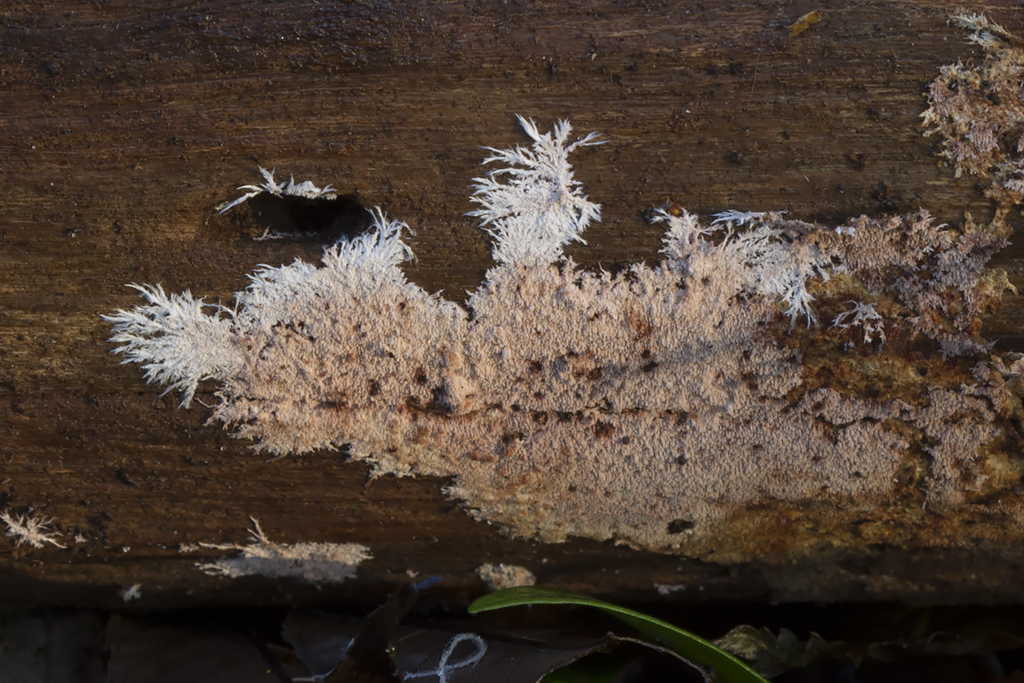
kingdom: Fungi
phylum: Basidiomycota
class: Agaricomycetes
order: Polyporales
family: Steccherinaceae
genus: Steccherinum
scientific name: Steccherinum fimbriatum
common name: trådet skønpig
